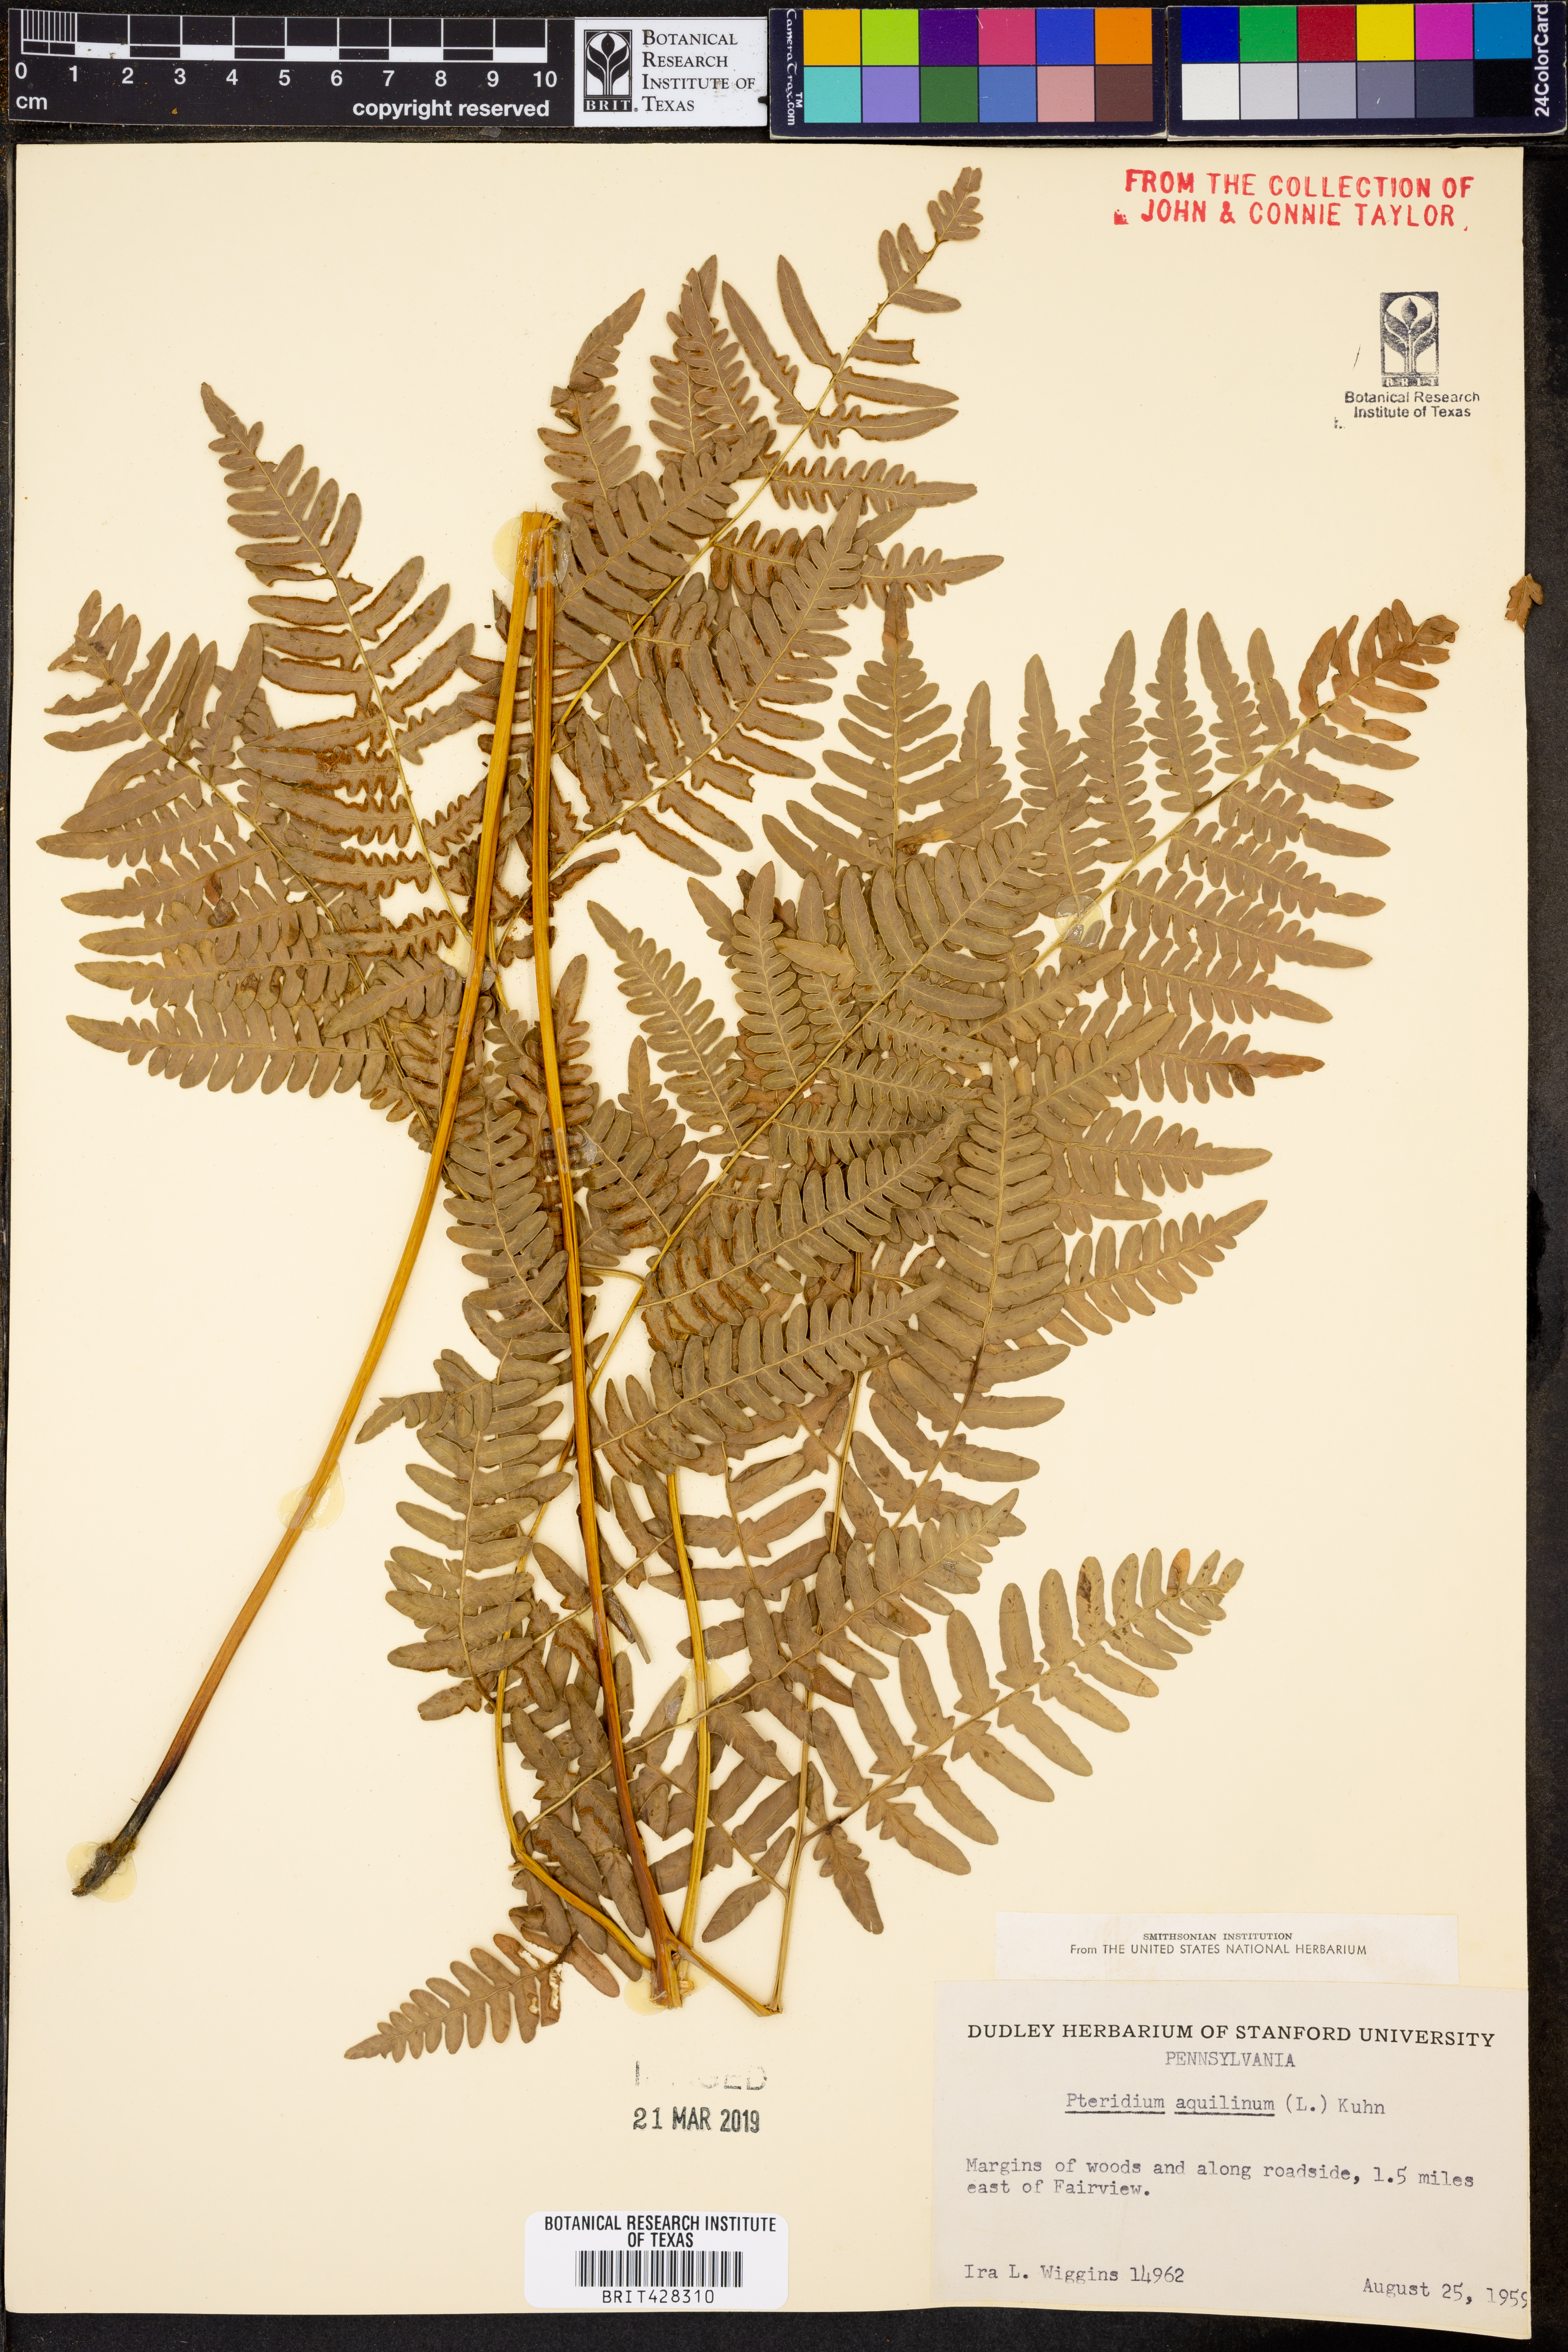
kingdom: Plantae
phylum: Tracheophyta
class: Polypodiopsida
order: Polypodiales
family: Dennstaedtiaceae
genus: Pteridium
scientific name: Pteridium aquilinum
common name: Bracken
